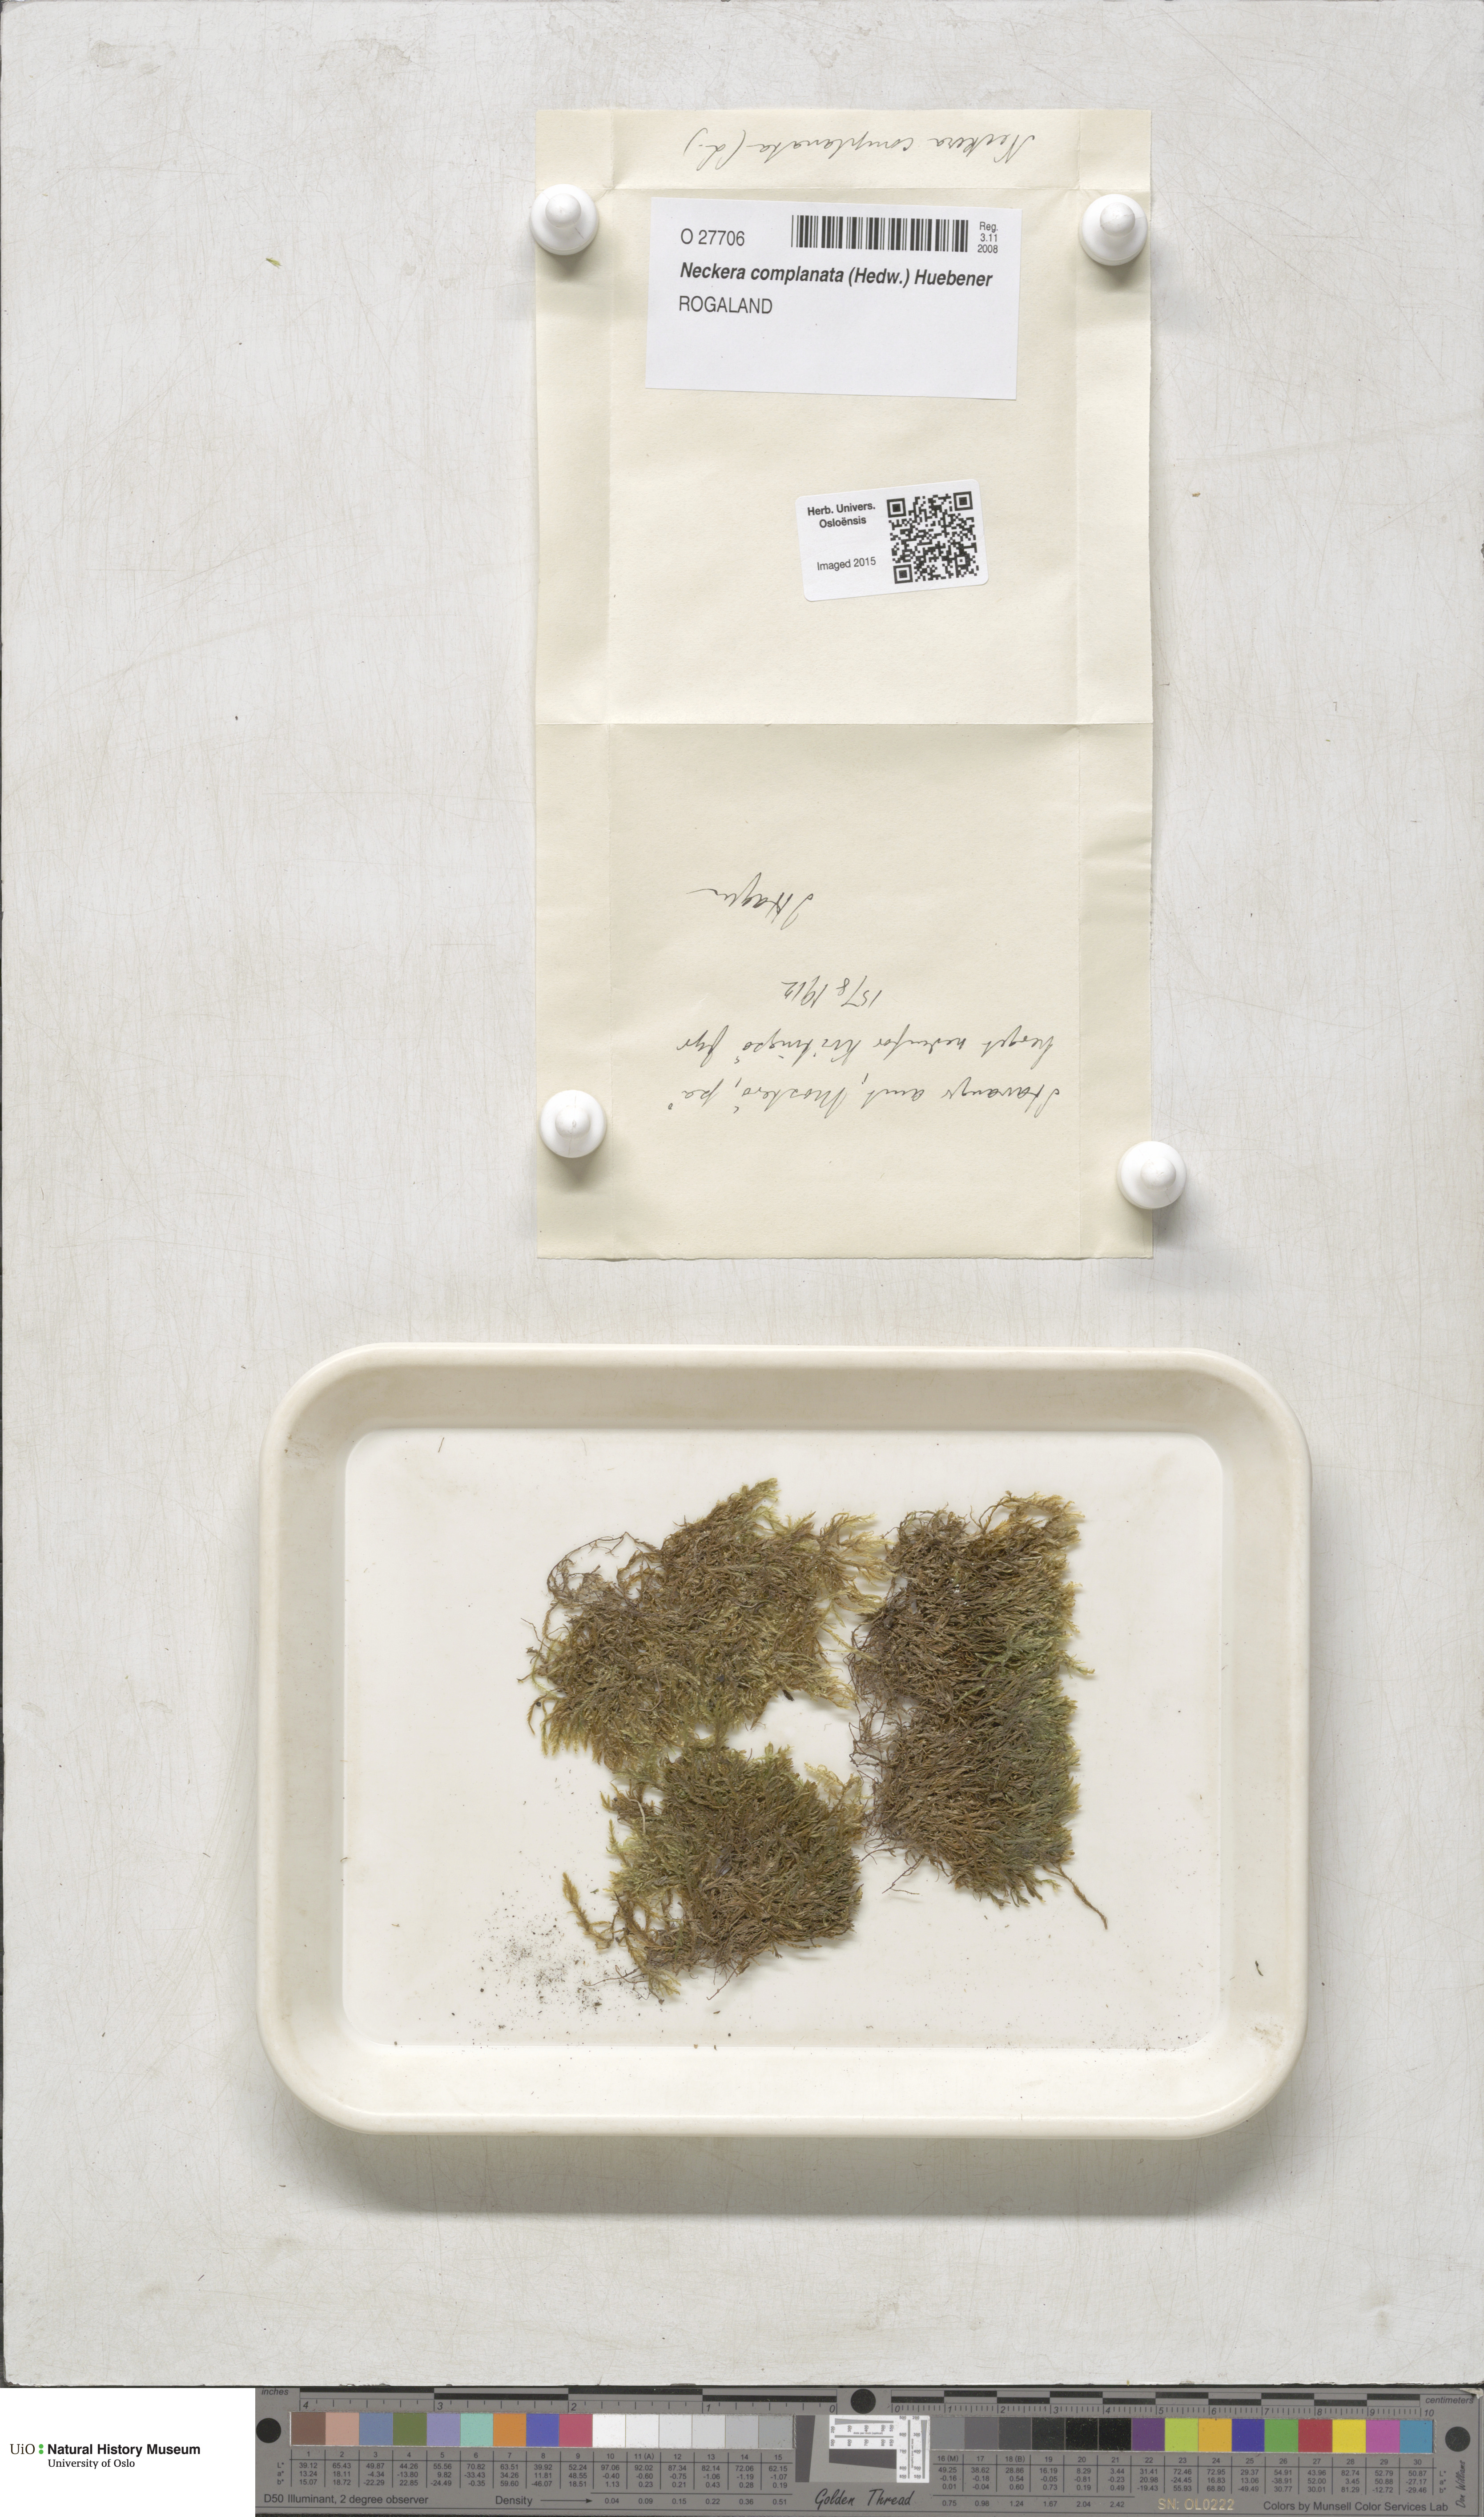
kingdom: Plantae
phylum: Bryophyta
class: Bryopsida
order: Hypnales
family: Neckeraceae
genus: Alleniella
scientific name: Alleniella complanata
